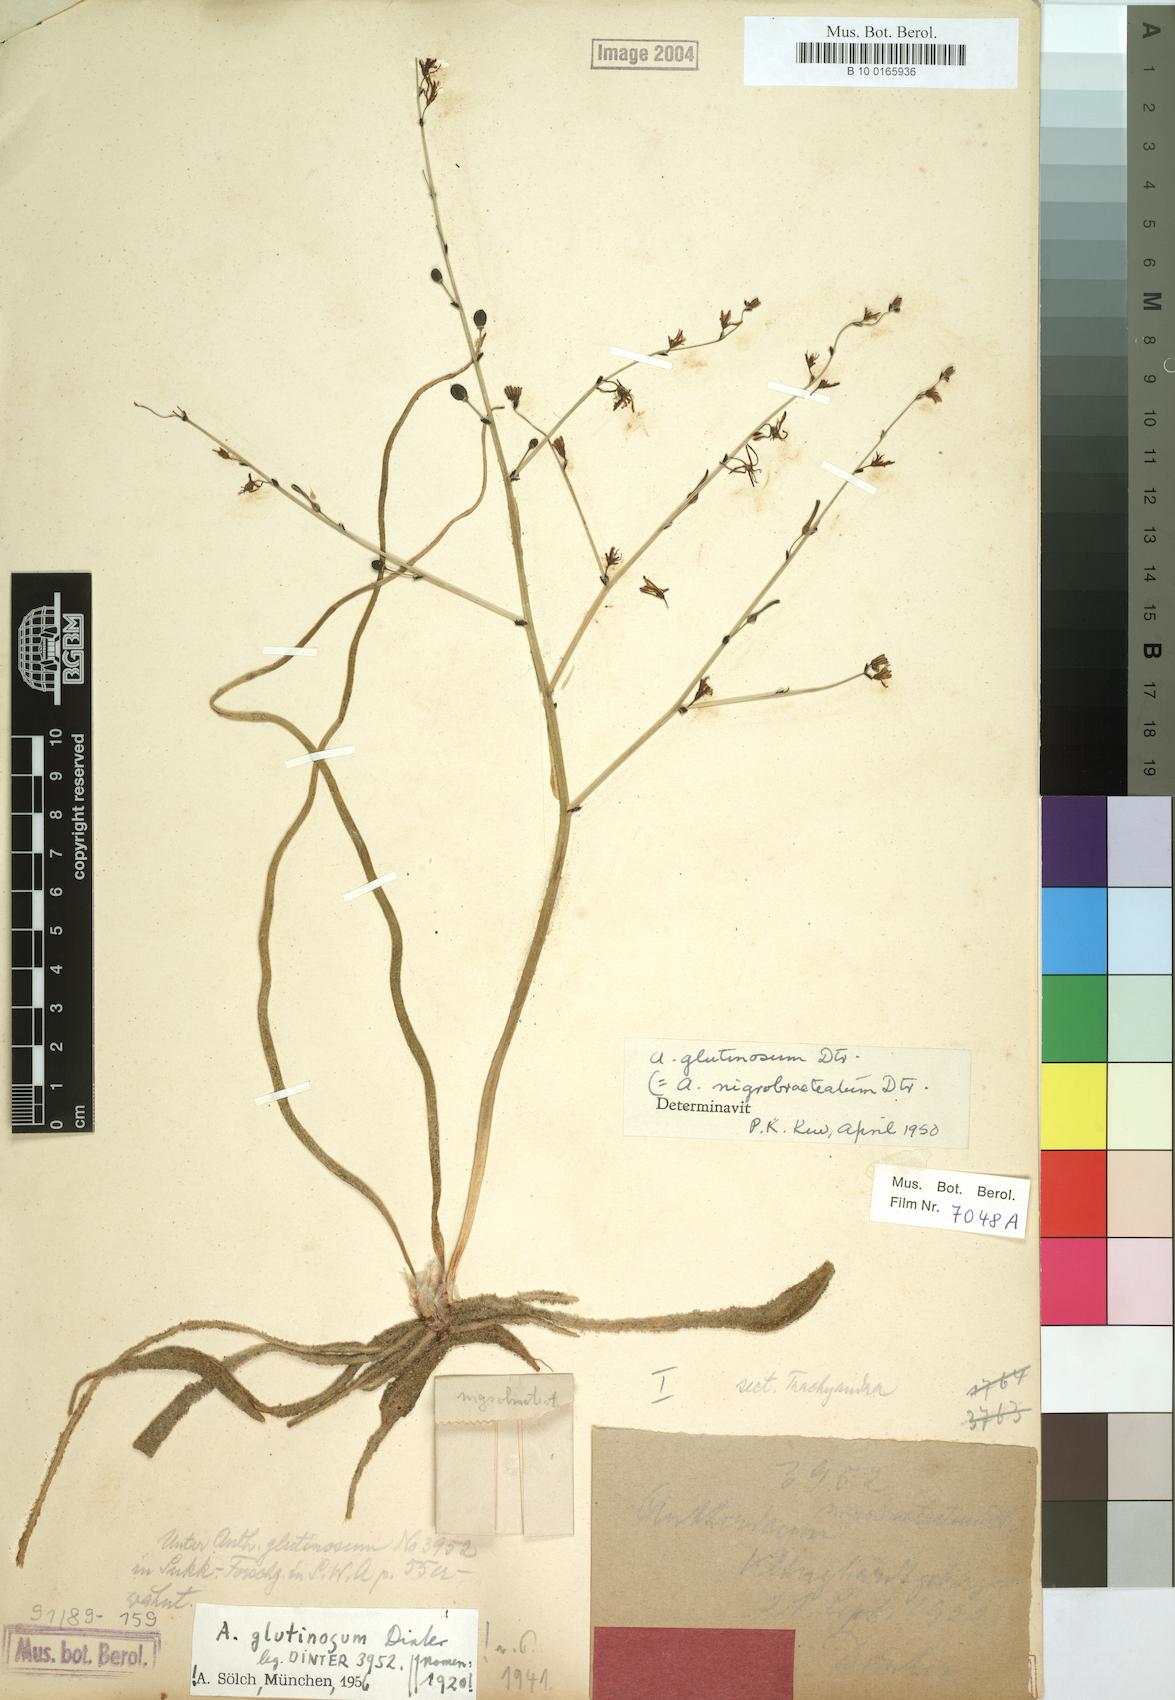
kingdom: Plantae
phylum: Tracheophyta
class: Liliopsida
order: Asparagales
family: Asphodelaceae
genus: Trachyandra
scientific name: Trachyandra laxa
